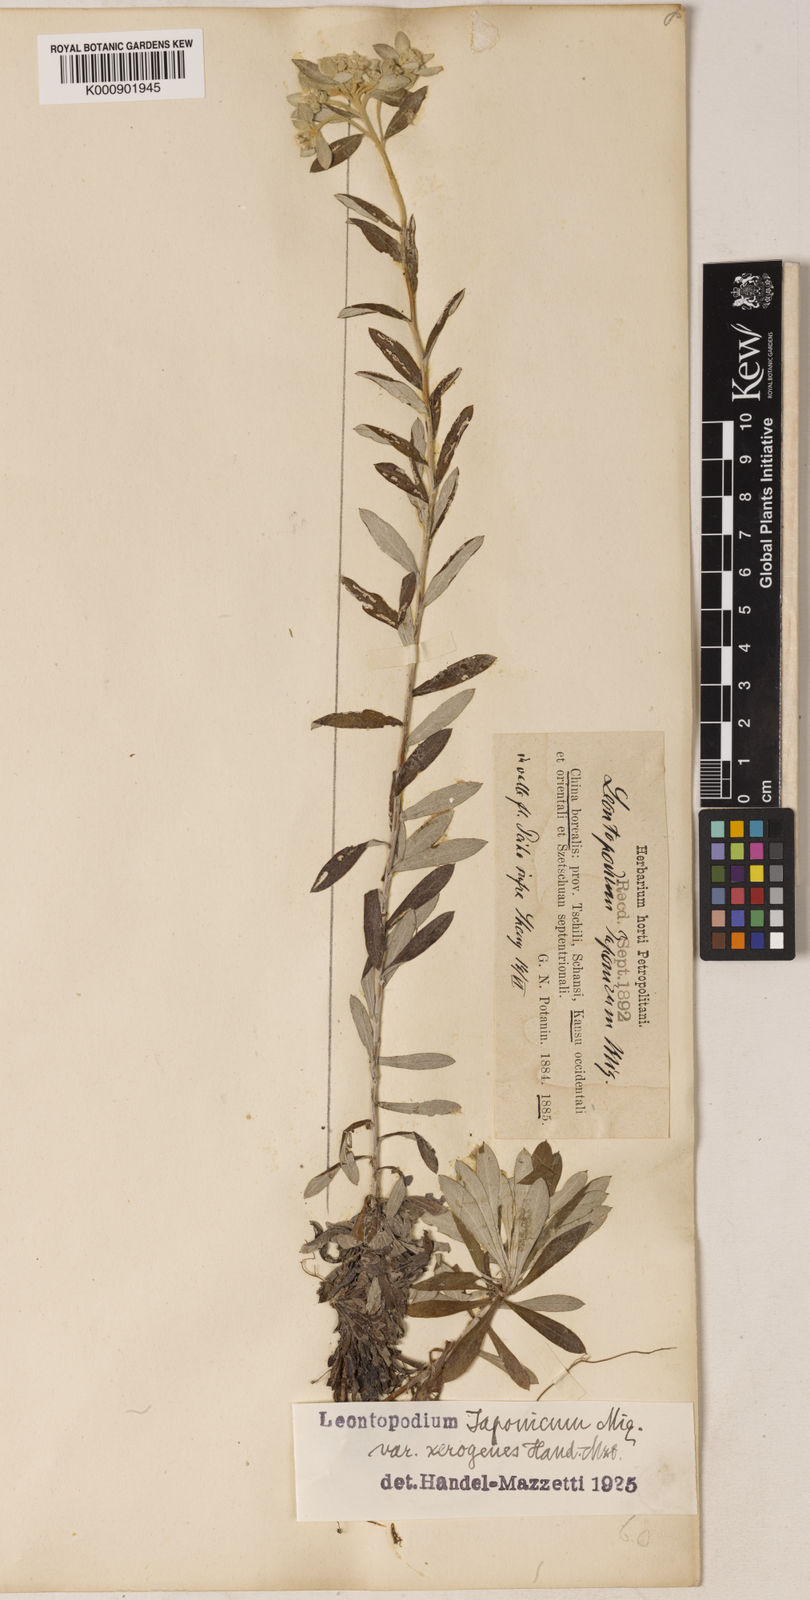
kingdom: Plantae
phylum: Tracheophyta
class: Magnoliopsida
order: Asterales
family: Asteraceae
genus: Leontopodium
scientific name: Leontopodium japonicum
